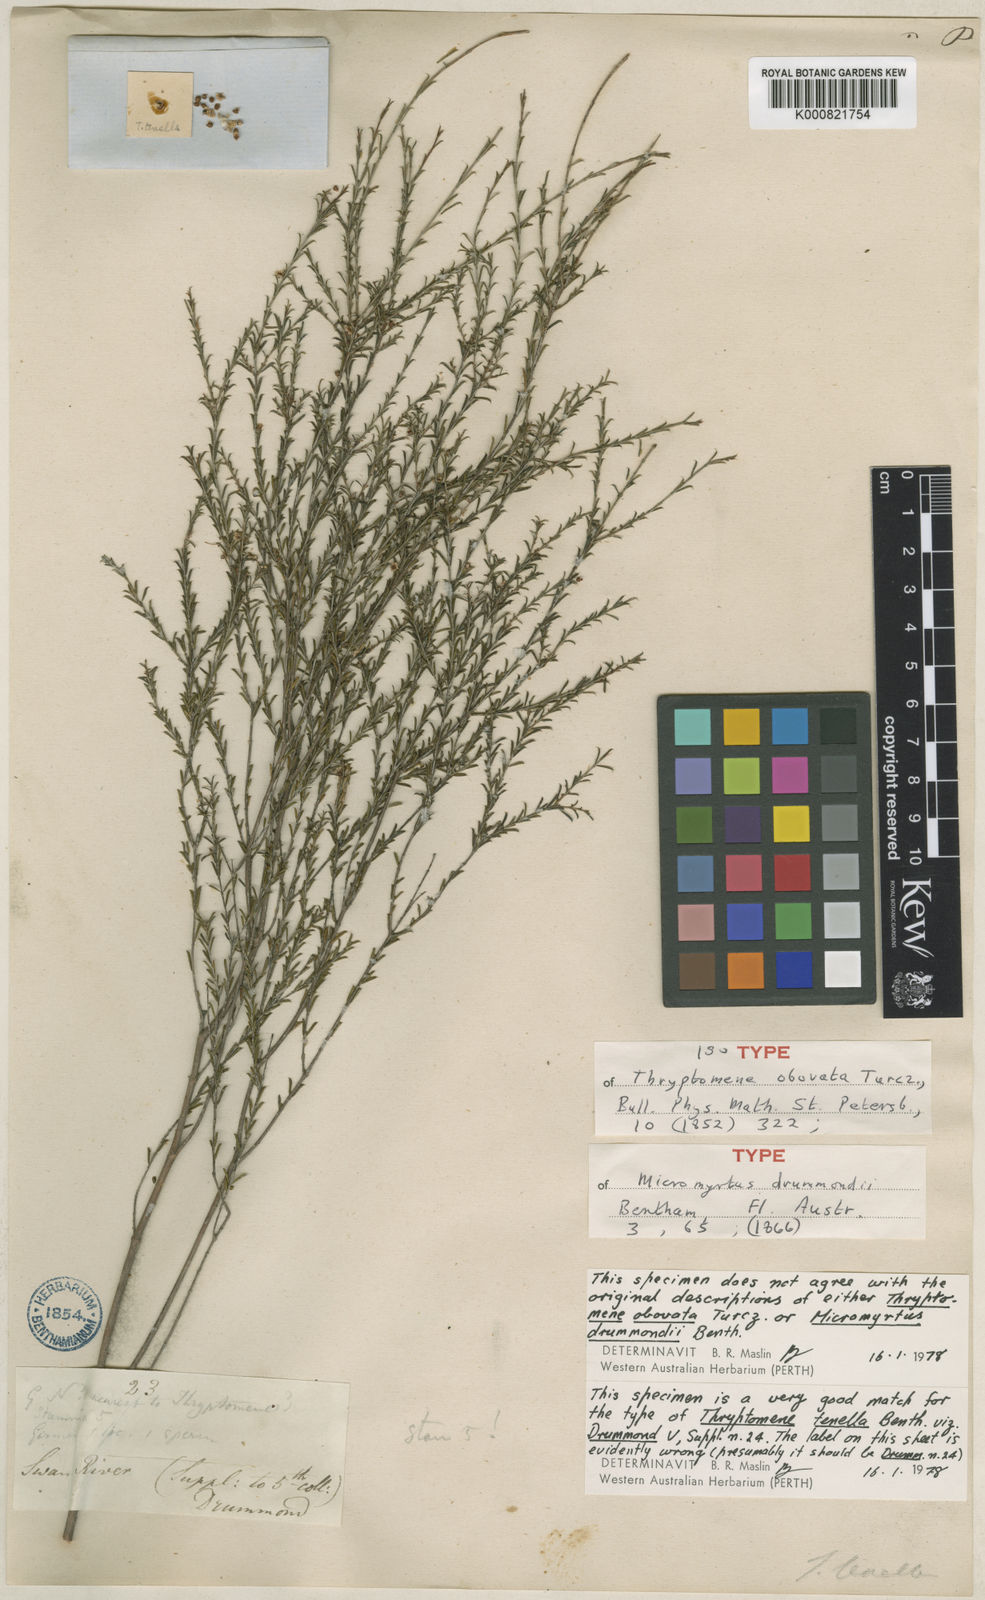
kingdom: Plantae
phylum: Tracheophyta
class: Magnoliopsida
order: Myrtales
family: Myrtaceae
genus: Micromyrtus
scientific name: Micromyrtus obovata
